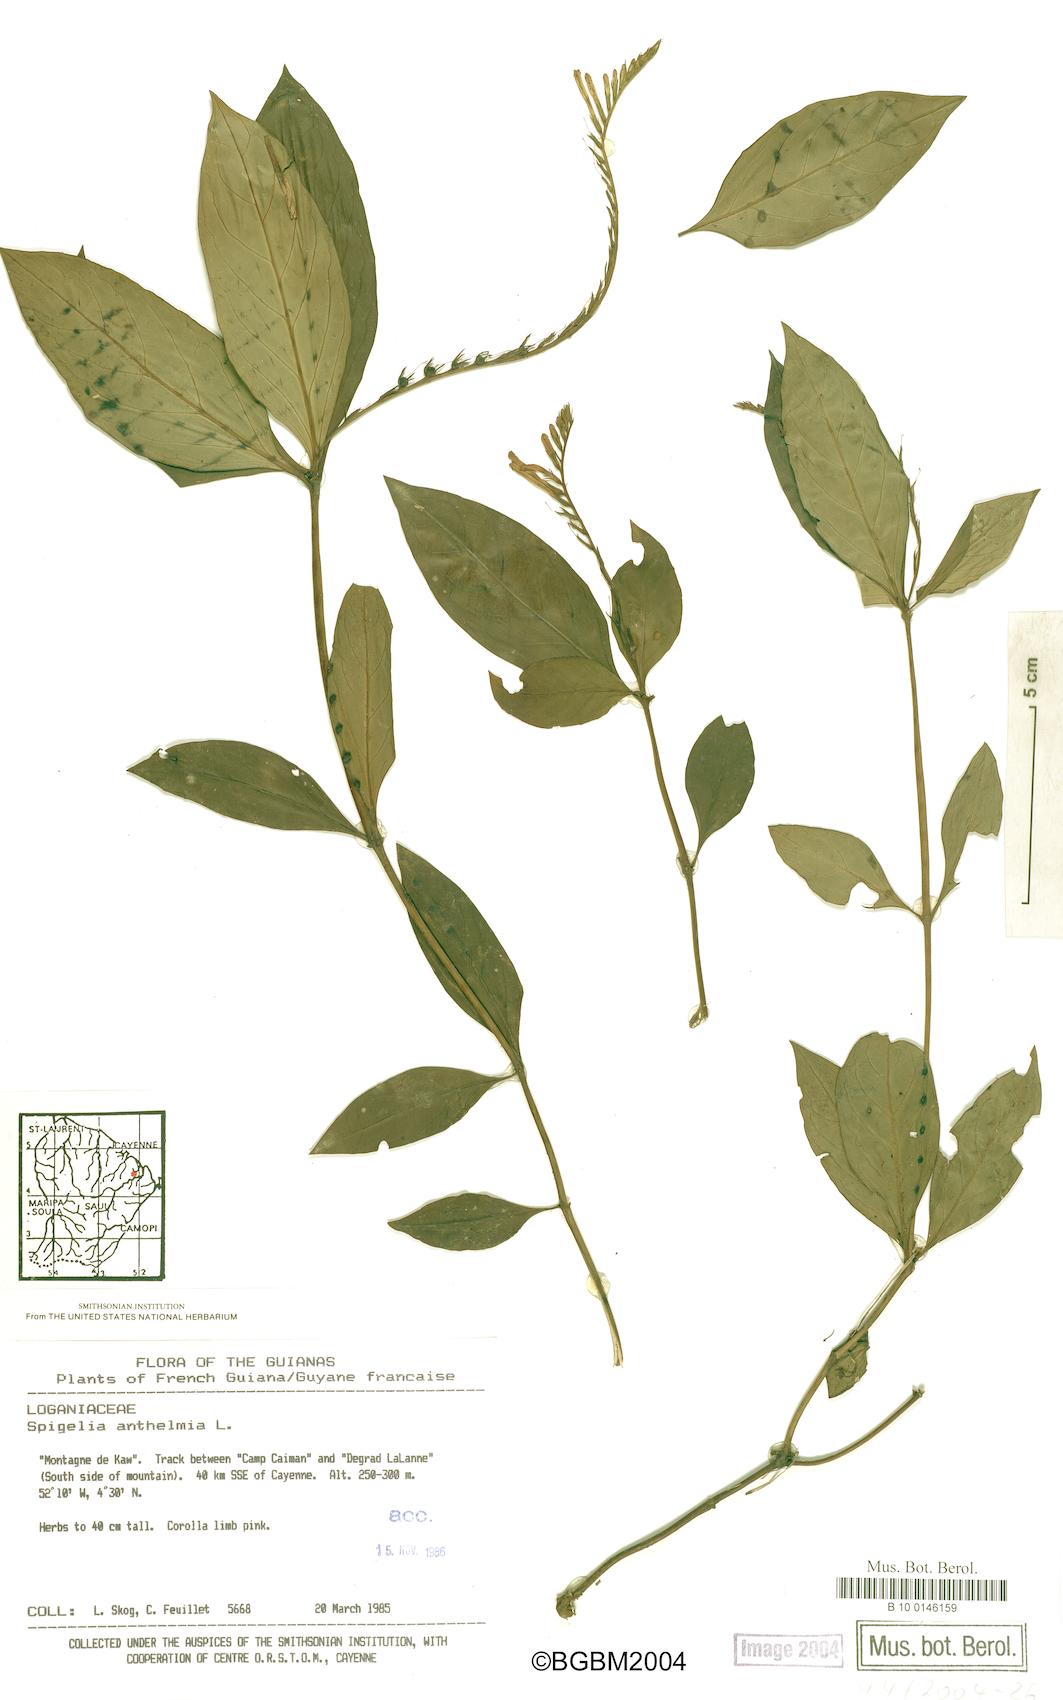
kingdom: Plantae
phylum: Tracheophyta
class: Magnoliopsida
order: Gentianales
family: Loganiaceae
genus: Spigelia
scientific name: Spigelia anthelmia
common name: West indian-pink
